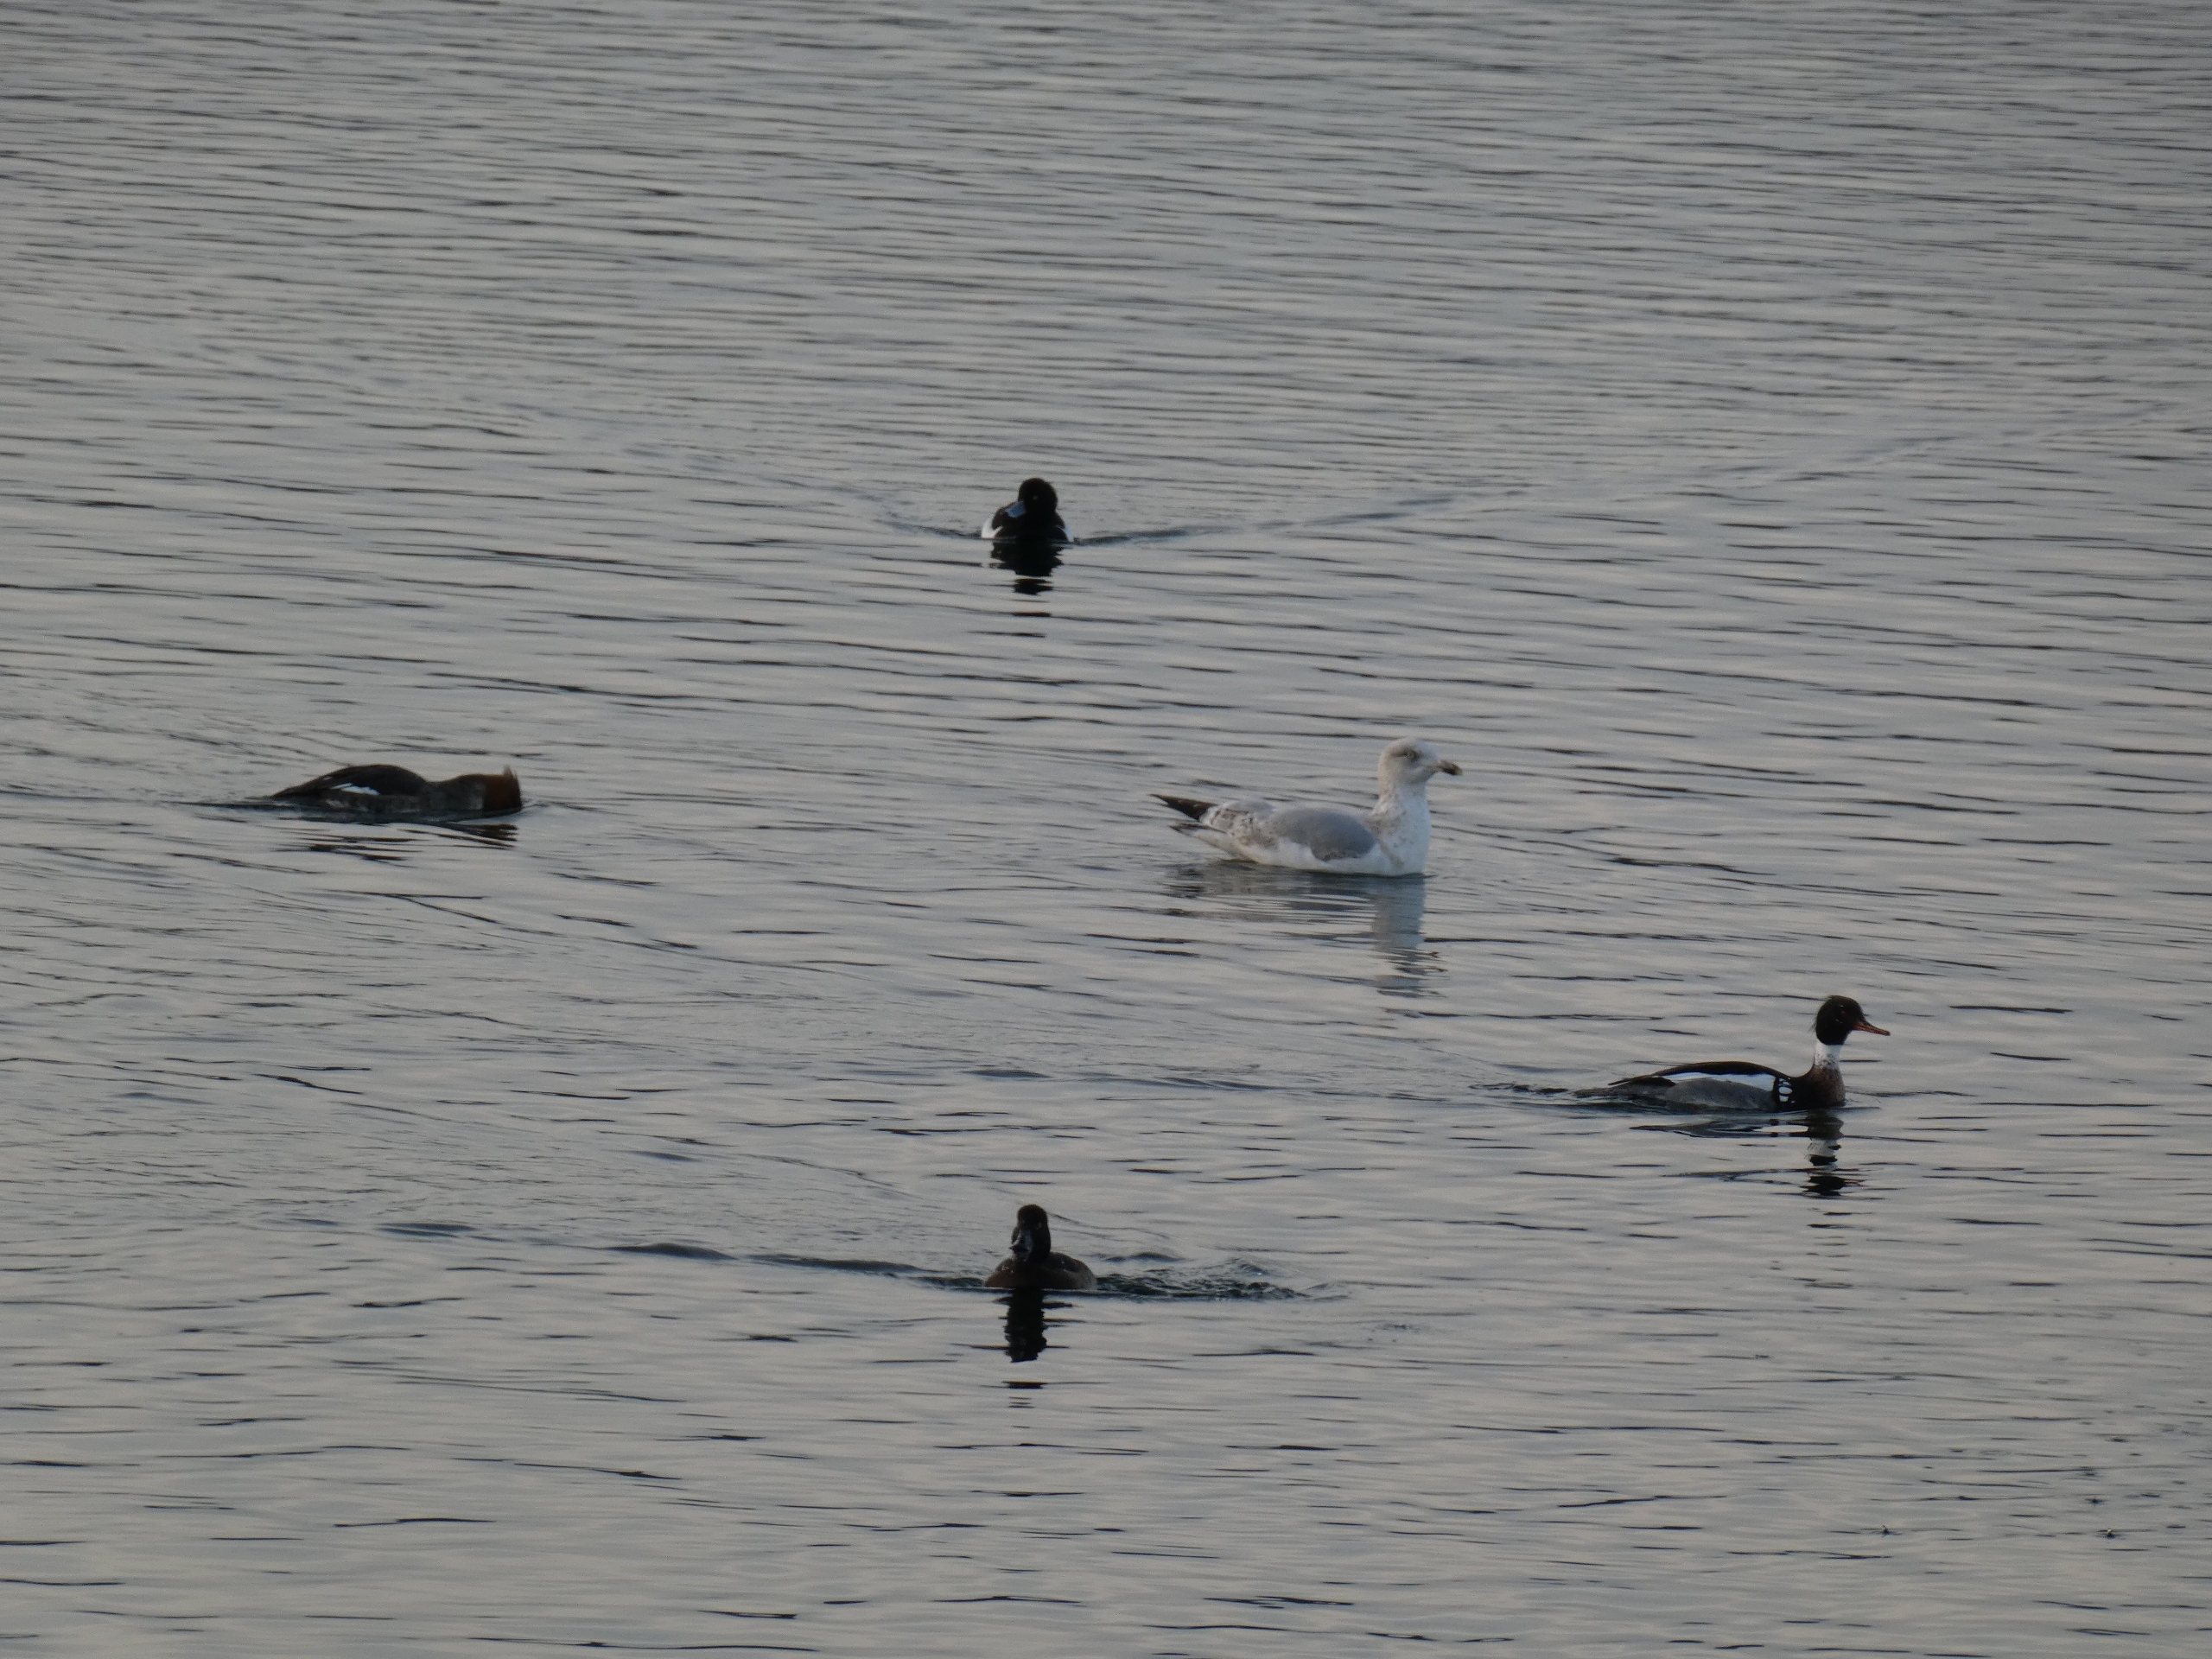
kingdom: Animalia
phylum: Chordata
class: Aves
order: Anseriformes
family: Anatidae
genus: Mergus
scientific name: Mergus serrator
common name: Toppet skallesluger
